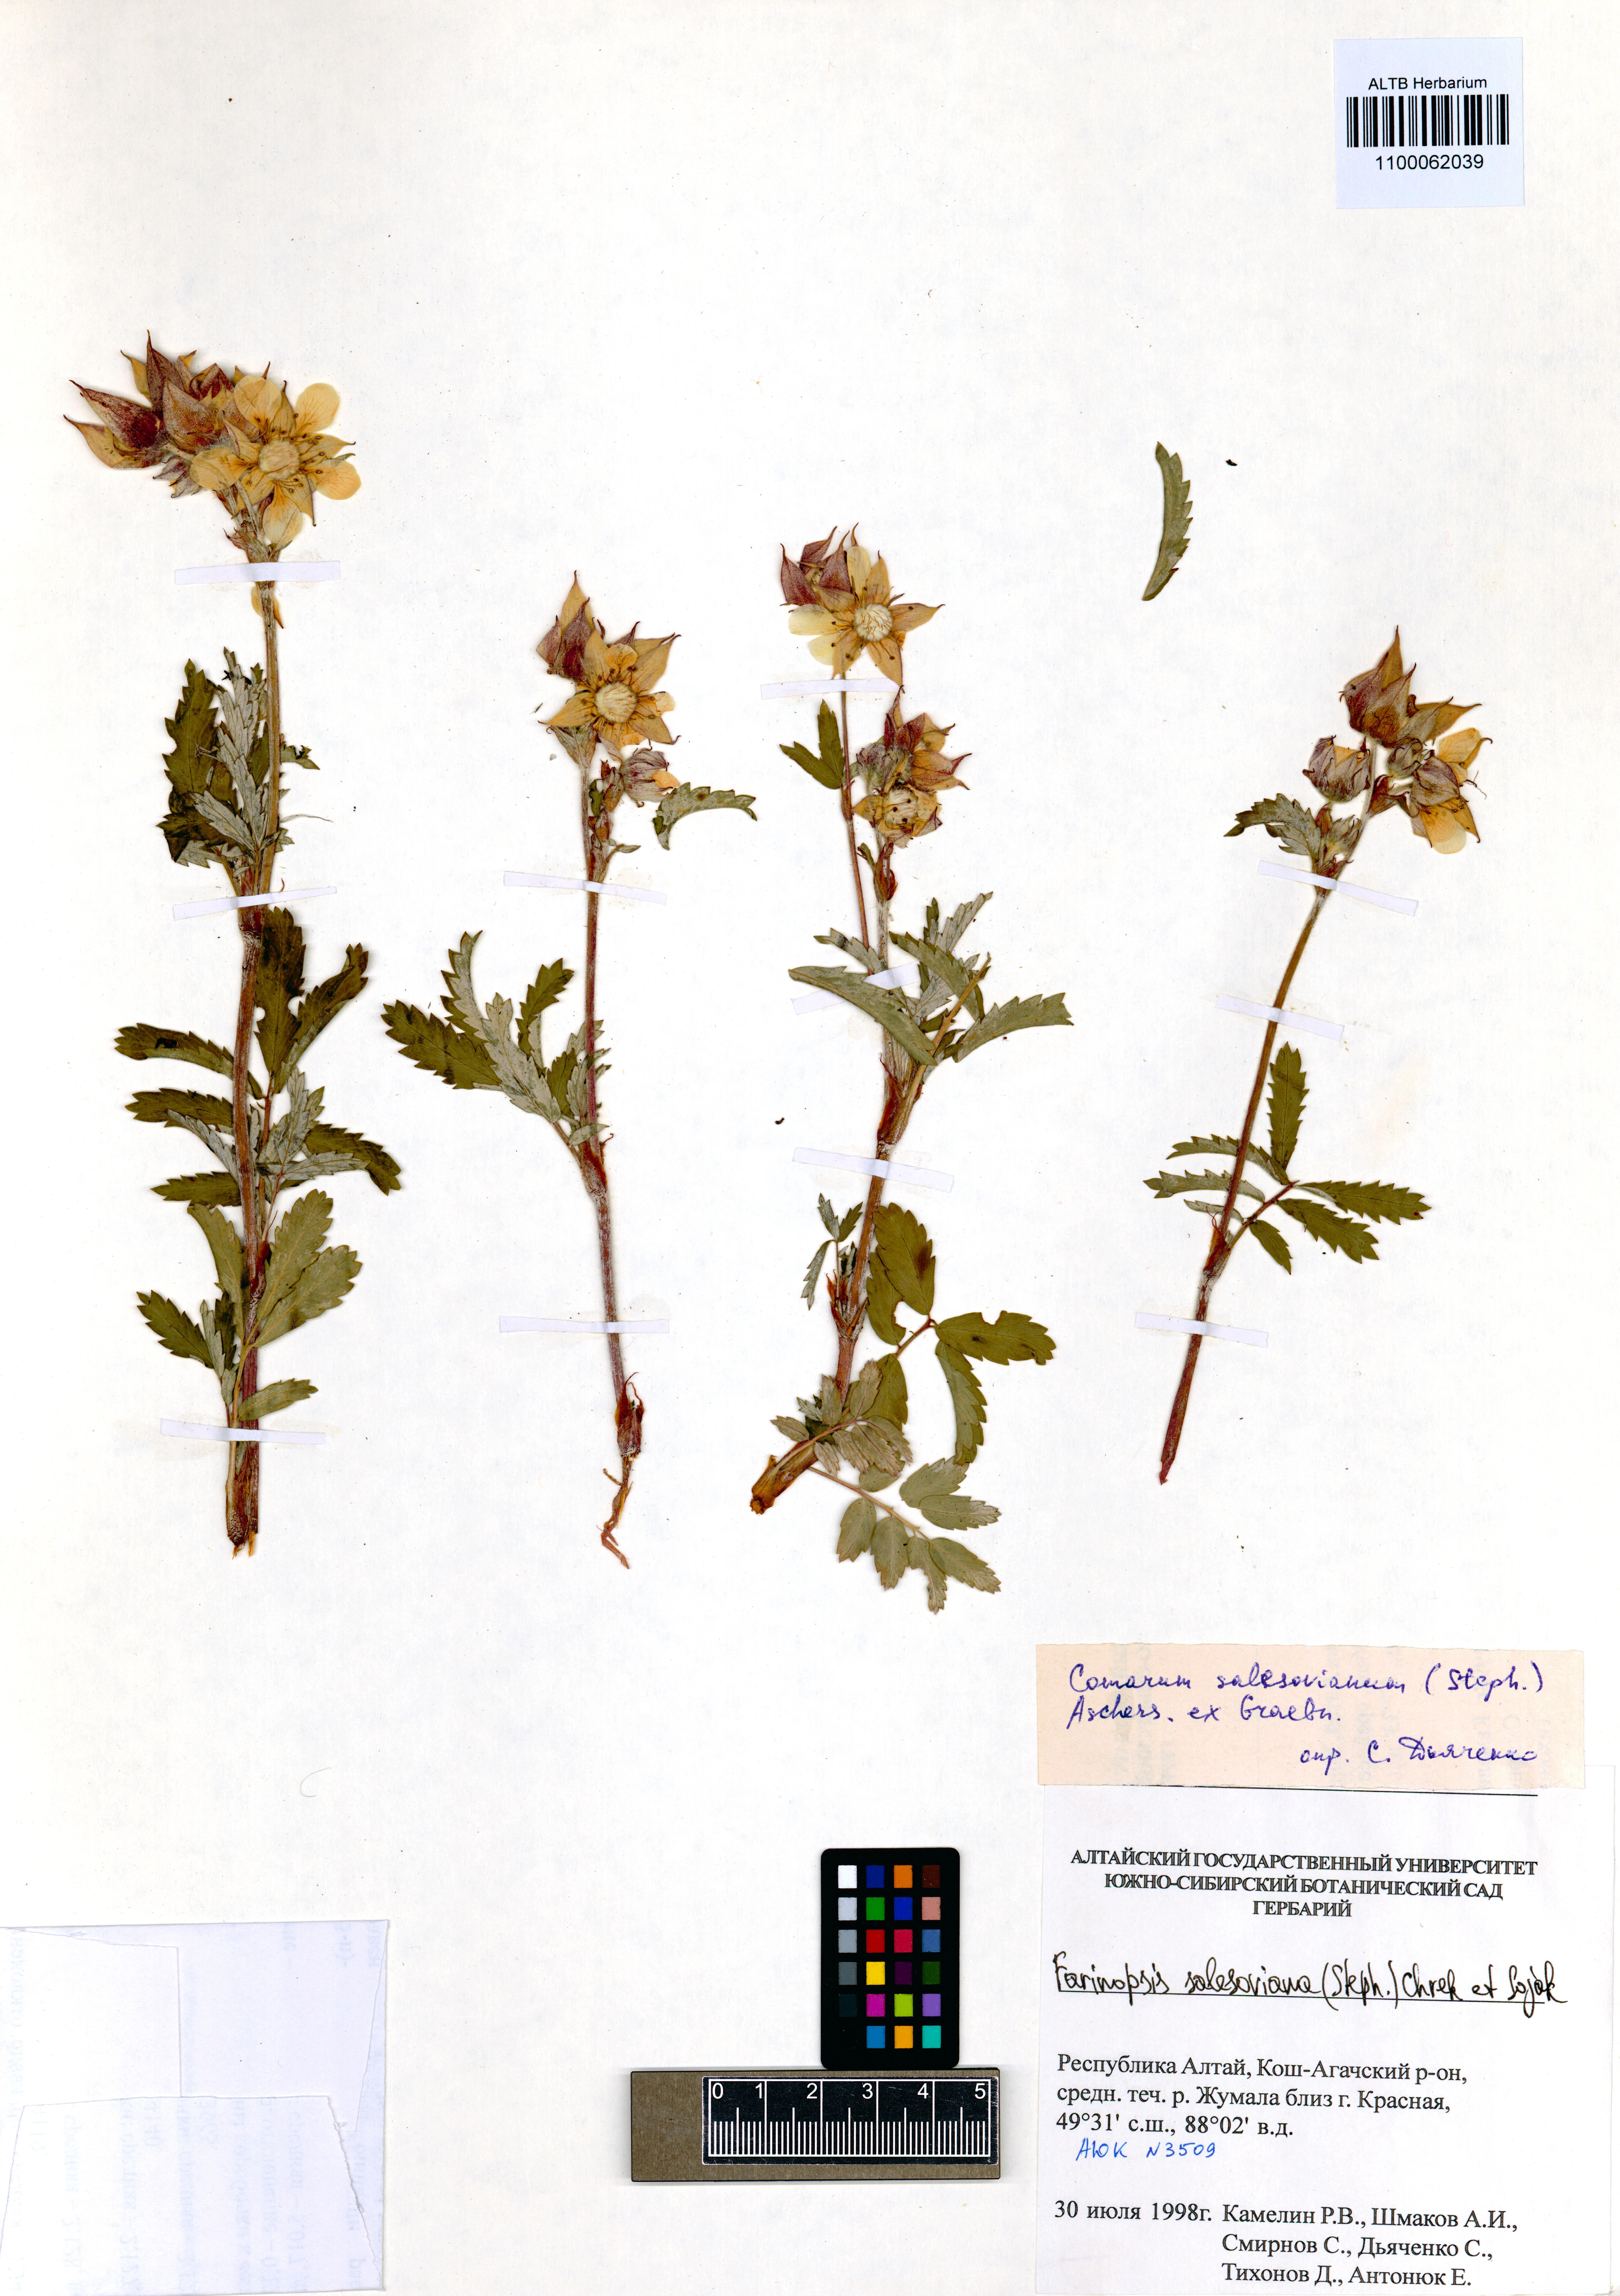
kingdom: Plantae
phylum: Tracheophyta
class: Magnoliopsida
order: Rosales
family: Rosaceae
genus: Farinopsis
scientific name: Farinopsis salesoviana
